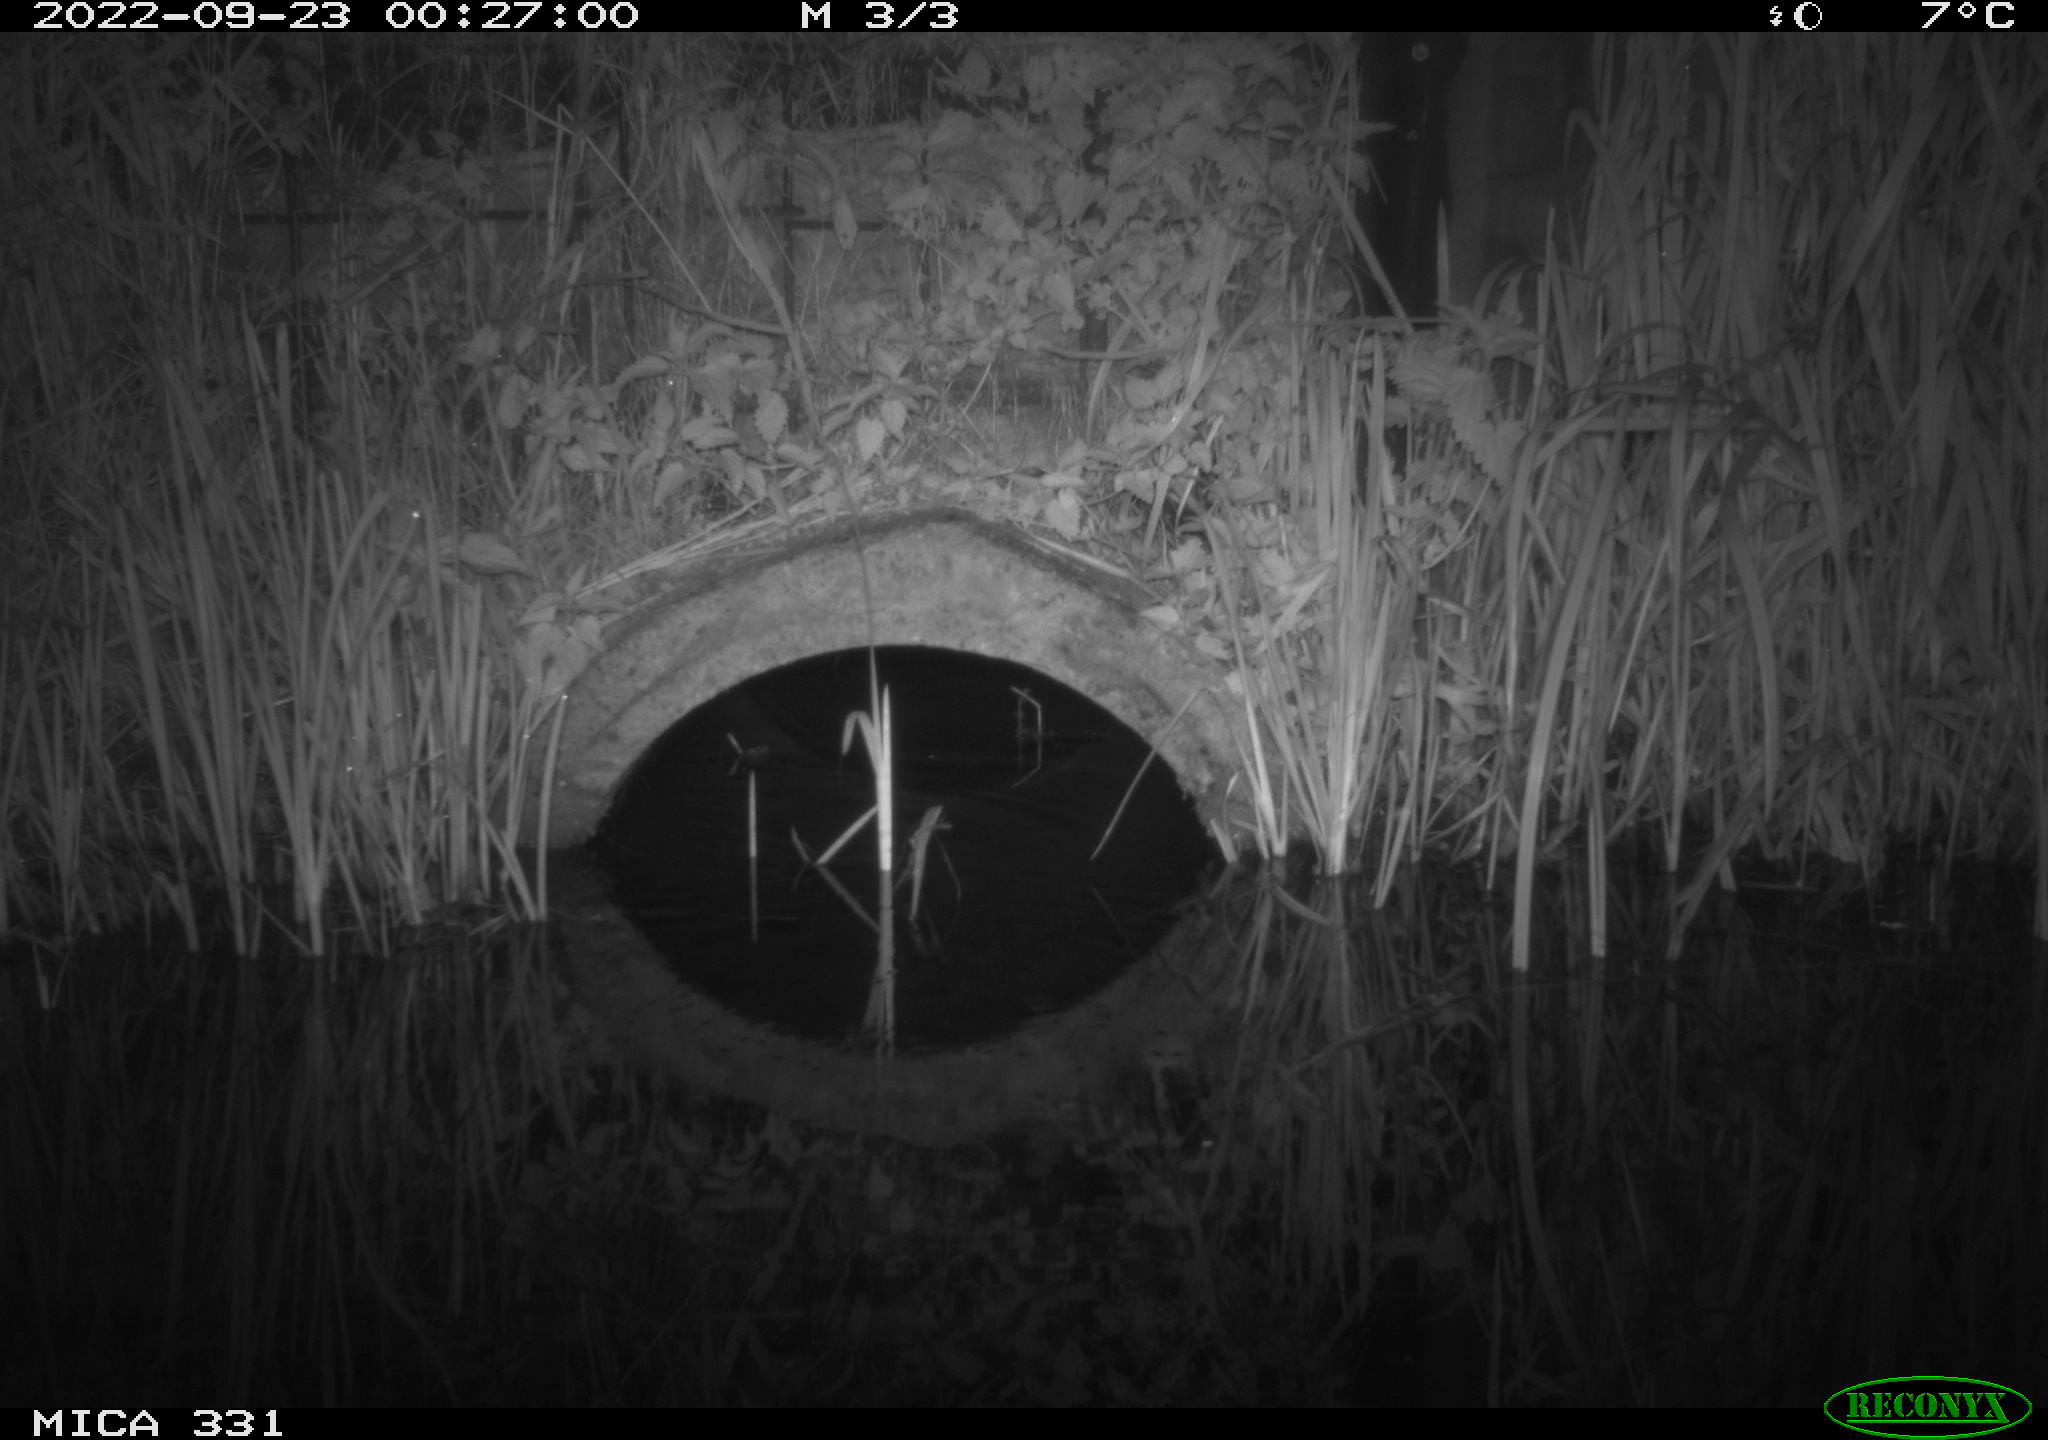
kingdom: Animalia
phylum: Chordata
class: Mammalia
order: Rodentia
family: Muridae
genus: Rattus
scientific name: Rattus norvegicus
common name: Brown rat
